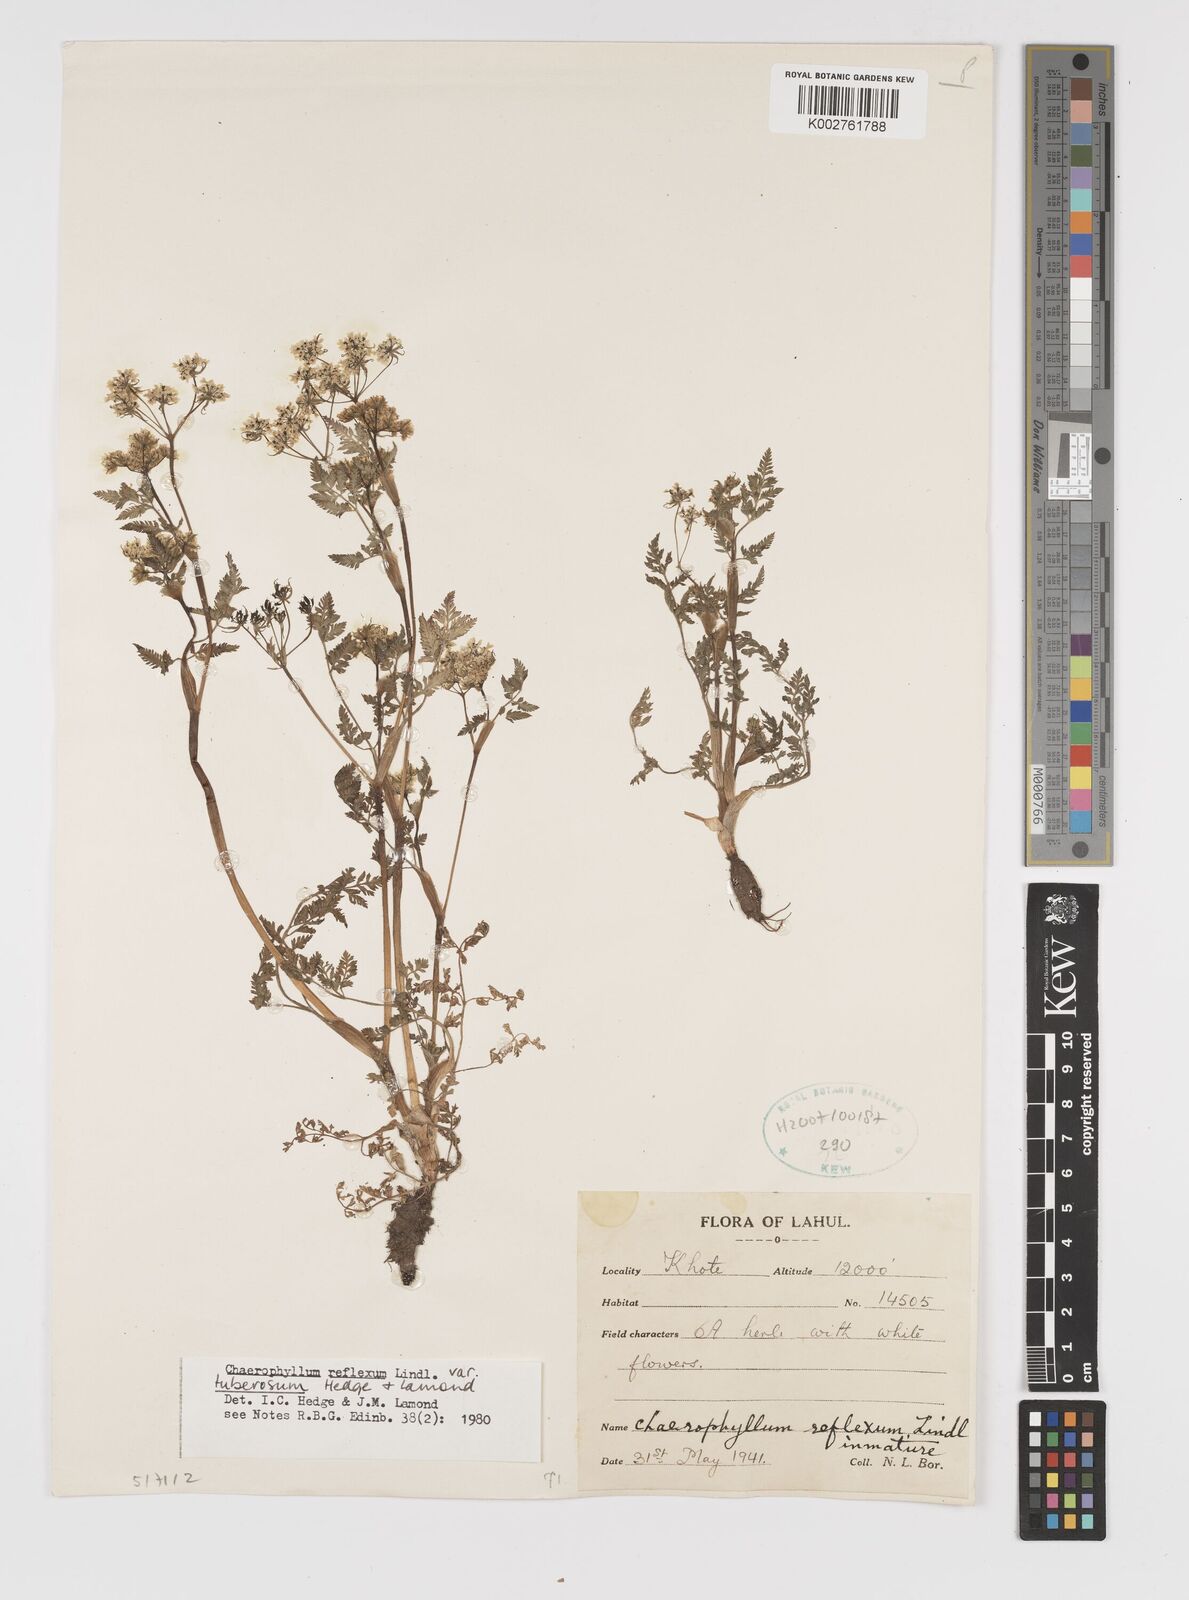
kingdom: Plantae
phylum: Tracheophyta
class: Magnoliopsida
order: Apiales
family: Apiaceae
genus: Chaerophyllum
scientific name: Chaerophyllum reflexum
